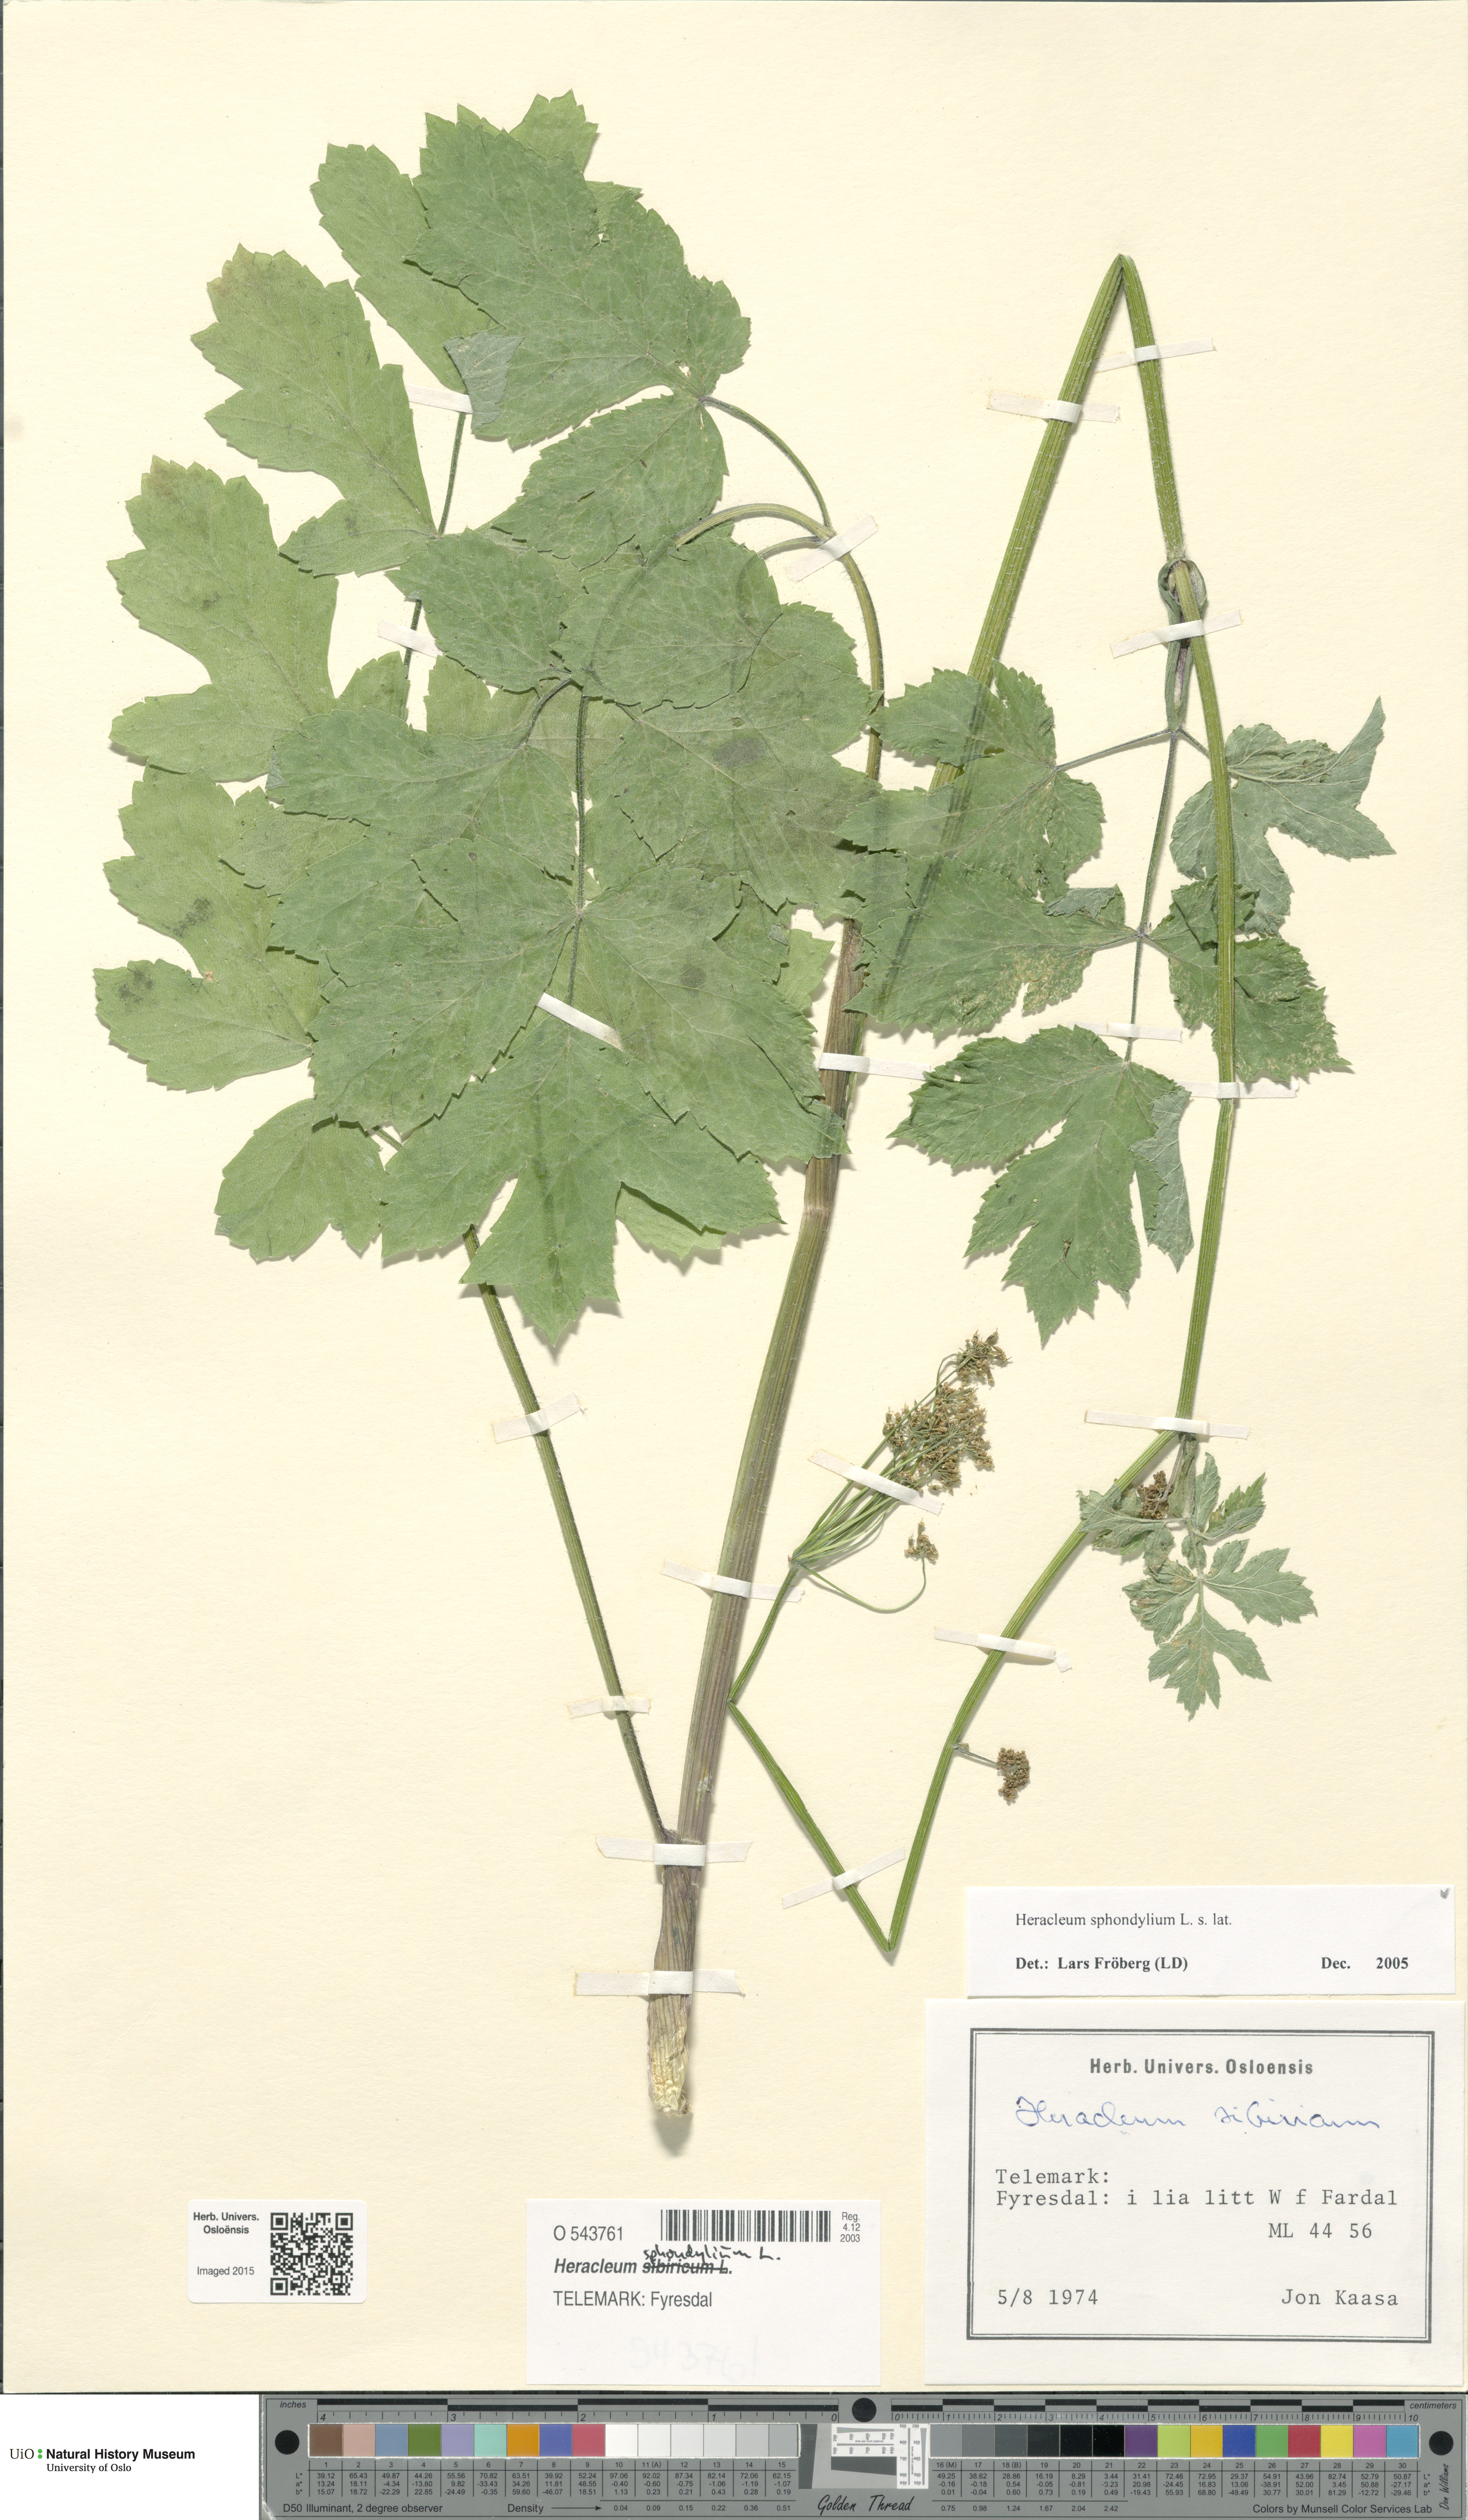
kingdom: Plantae
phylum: Tracheophyta
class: Magnoliopsida
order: Apiales
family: Apiaceae
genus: Heracleum
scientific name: Heracleum sphondylium
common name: Hogweed
